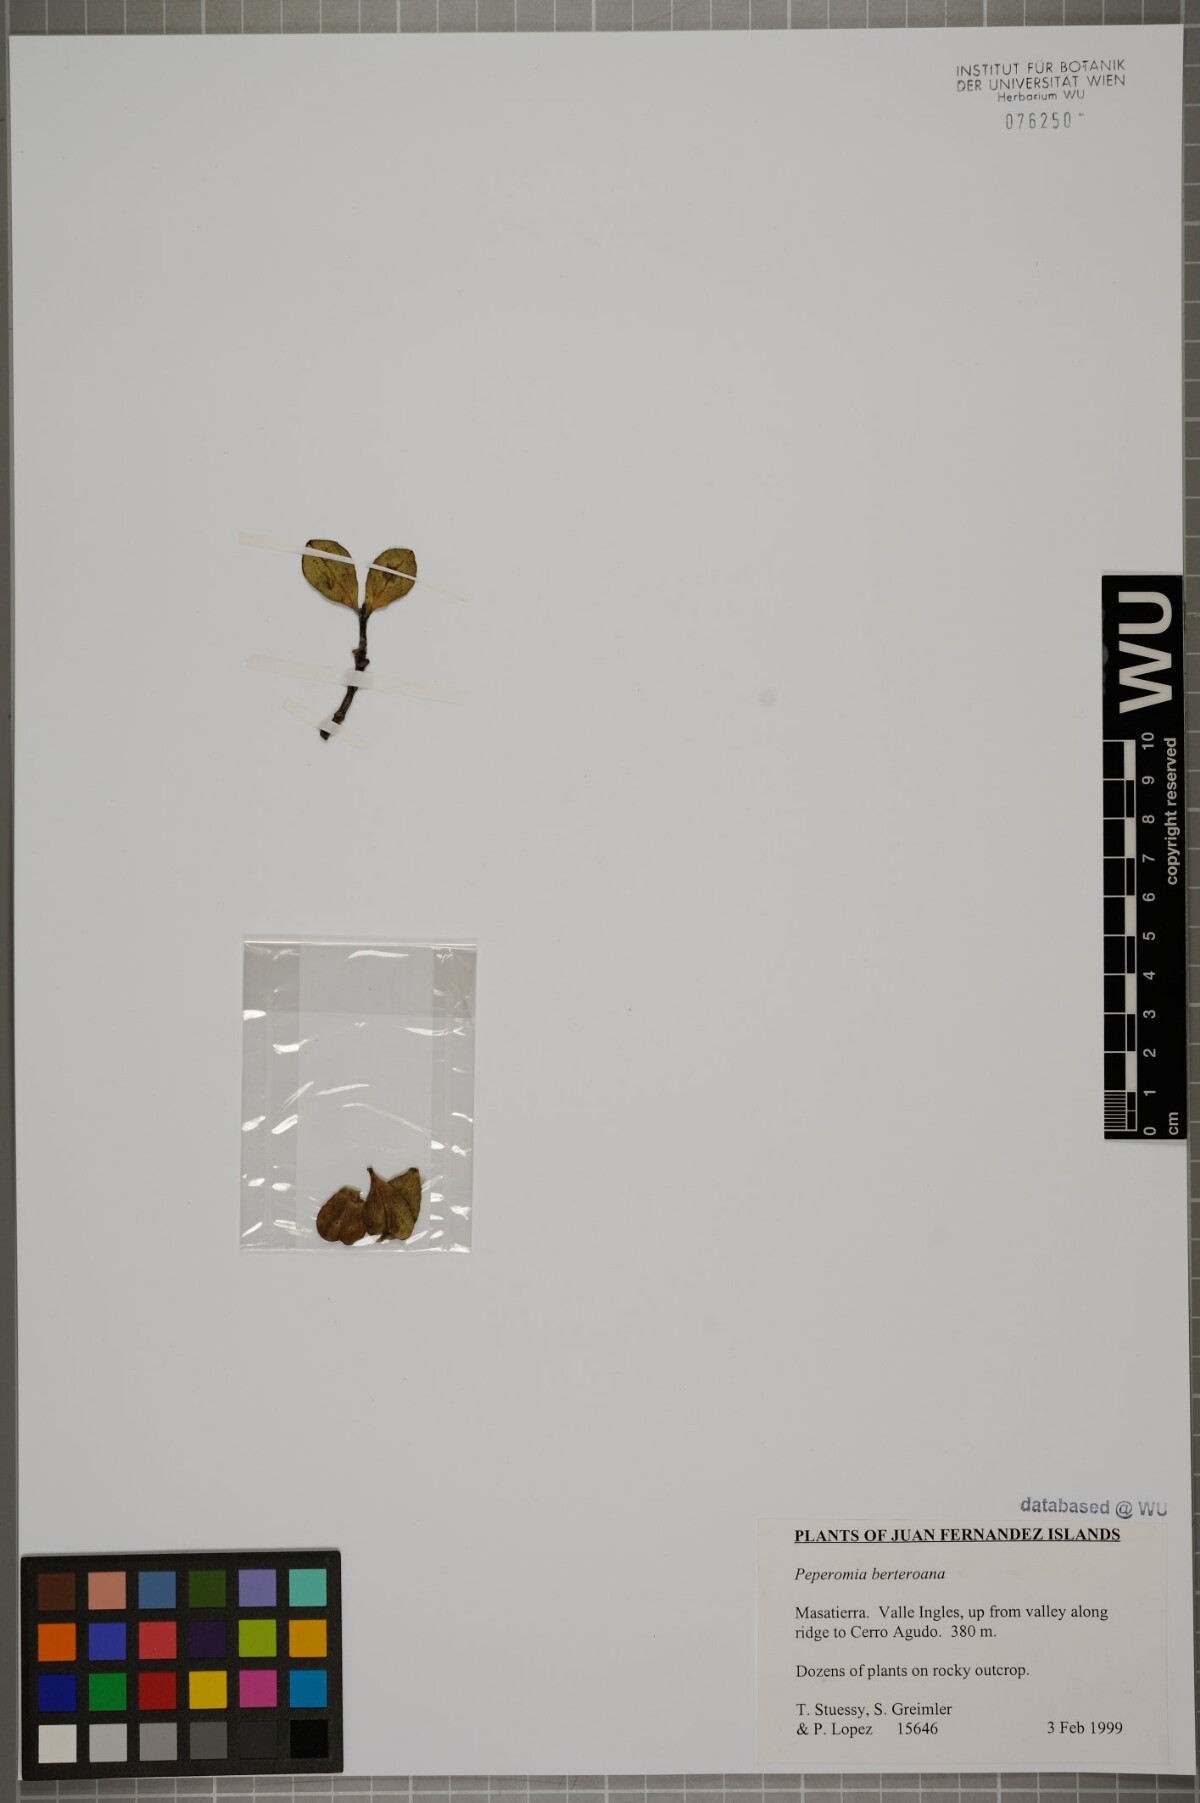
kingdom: Plantae
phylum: Tracheophyta
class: Magnoliopsida
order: Piperales
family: Piperaceae
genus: Peperomia
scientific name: Peperomia berteroana
